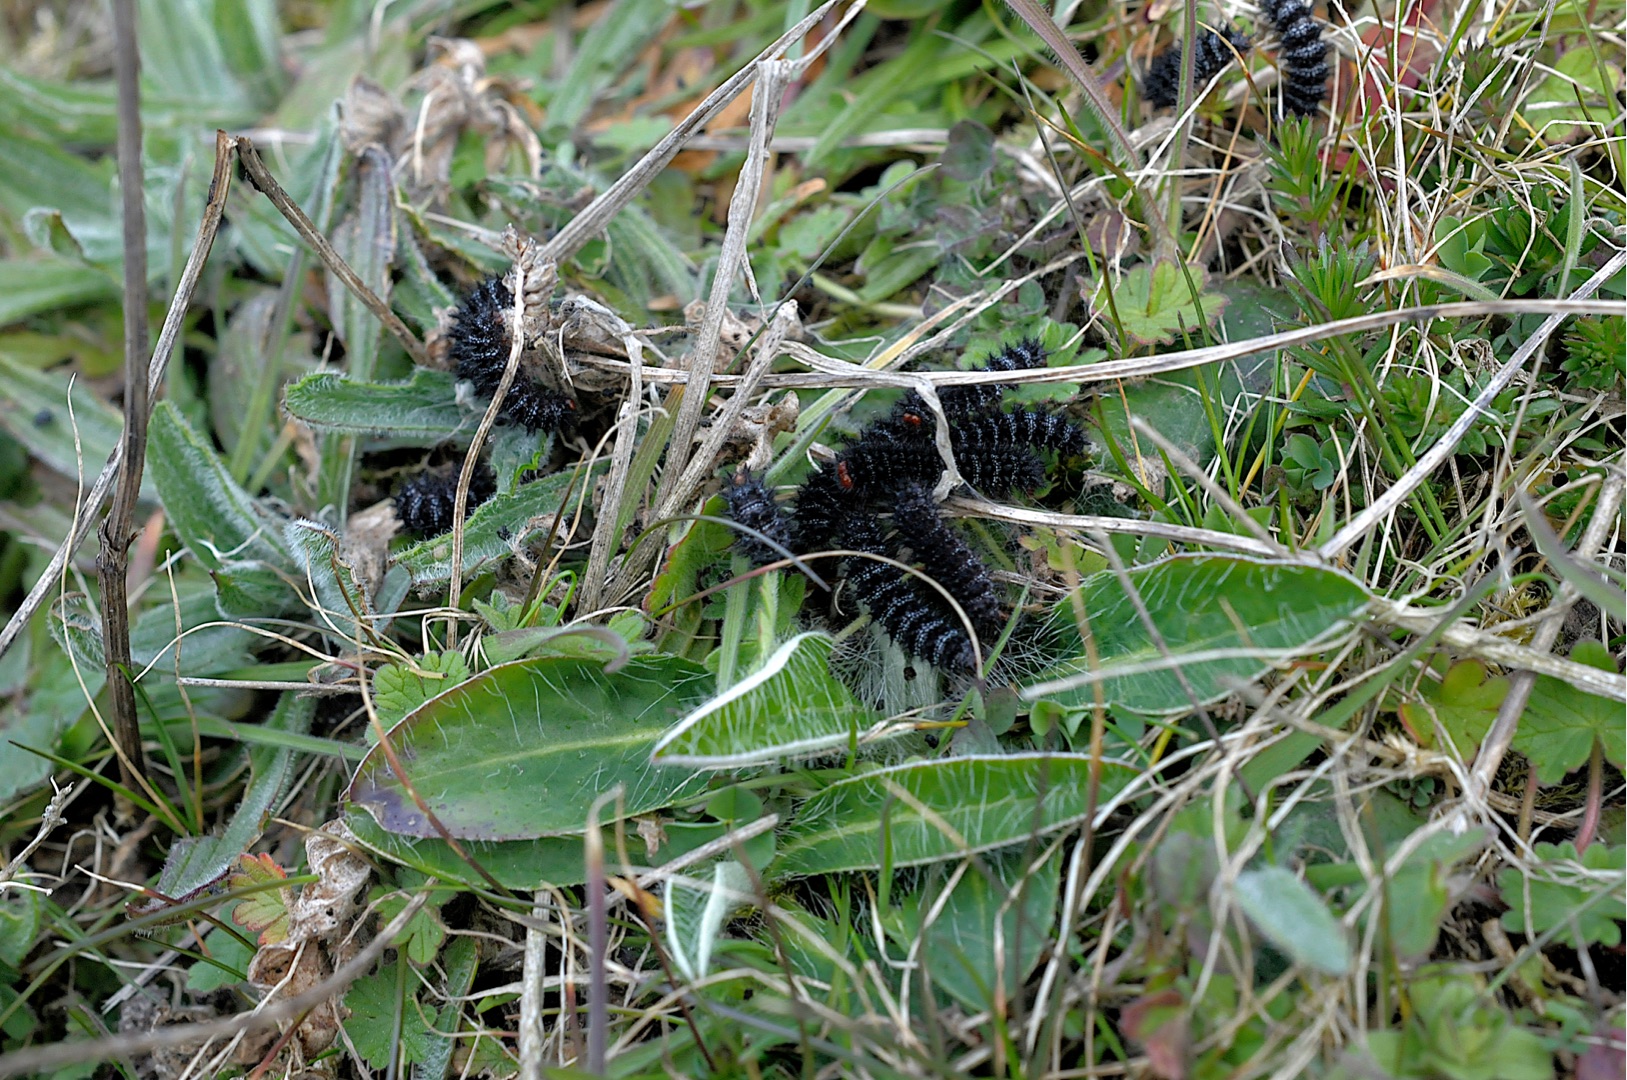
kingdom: Animalia
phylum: Arthropoda
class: Insecta
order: Lepidoptera
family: Nymphalidae
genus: Melitaea
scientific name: Melitaea cinxia
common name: Okkergul pletvinge
